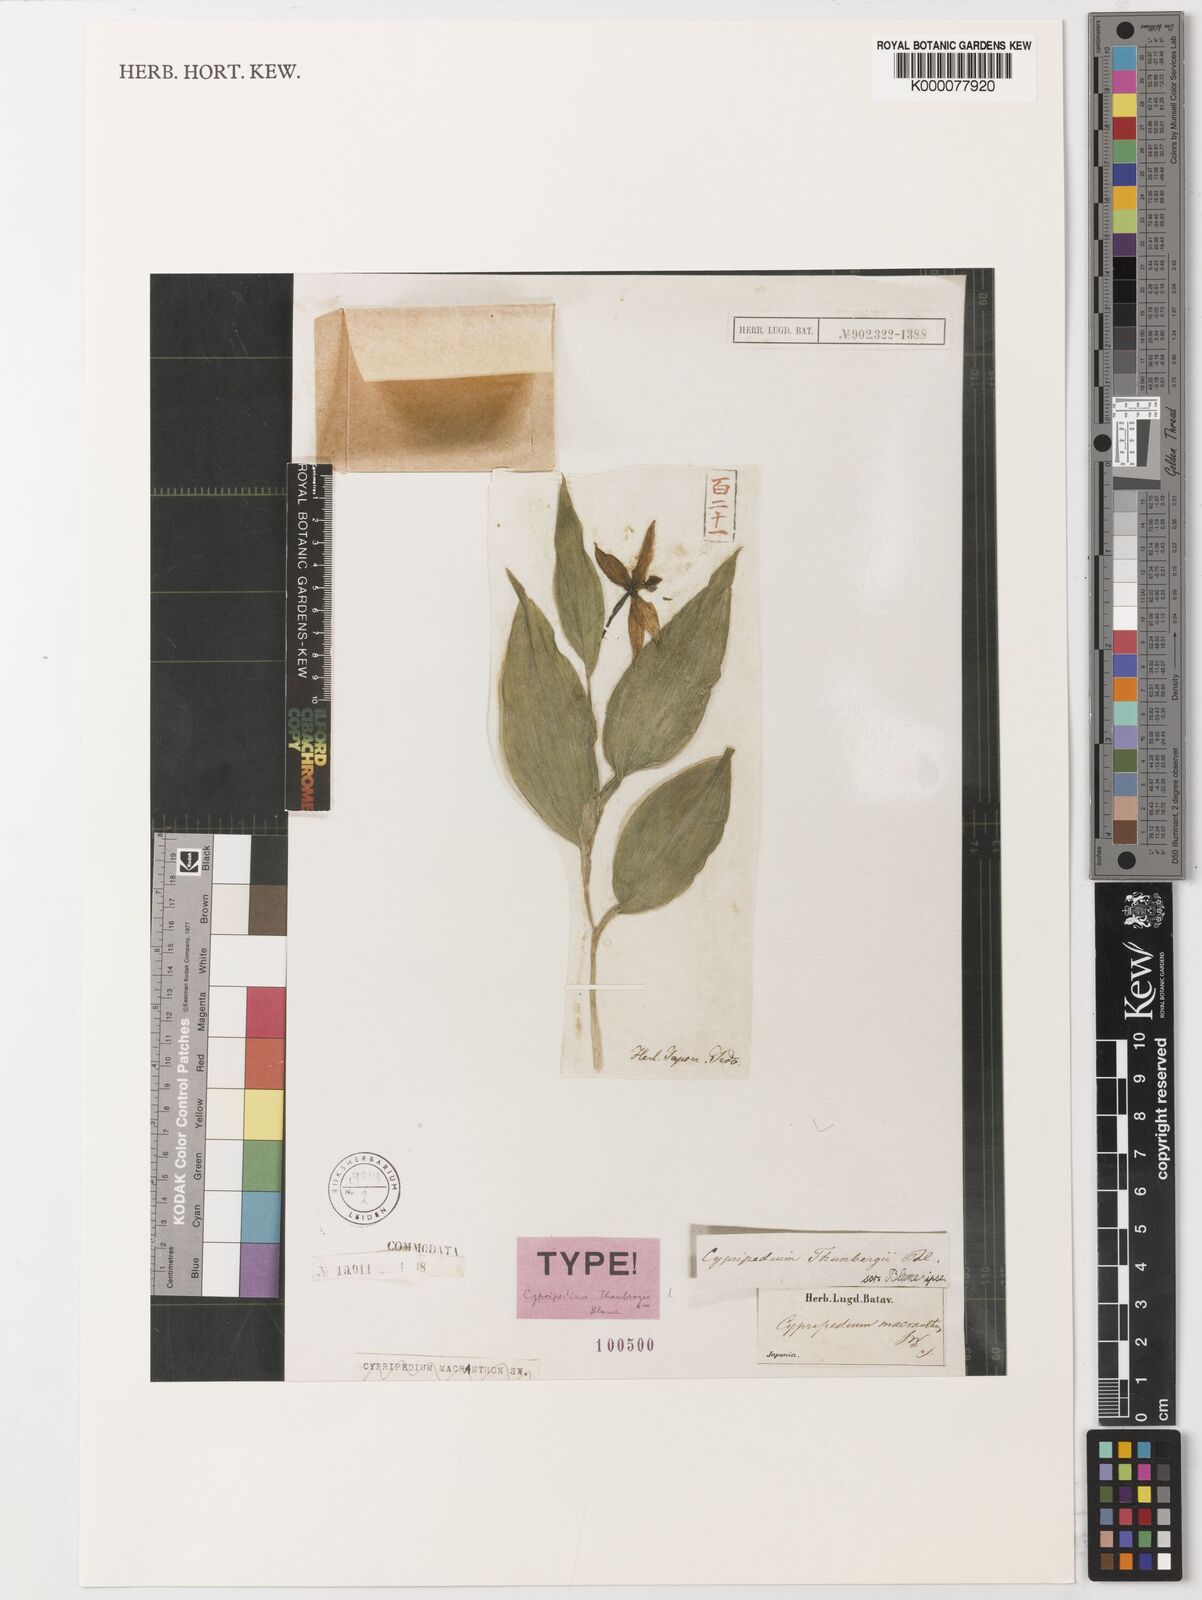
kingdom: Plantae
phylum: Tracheophyta
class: Liliopsida
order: Asparagales
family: Orchidaceae
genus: Cypripedium
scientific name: Cypripedium macranthos
